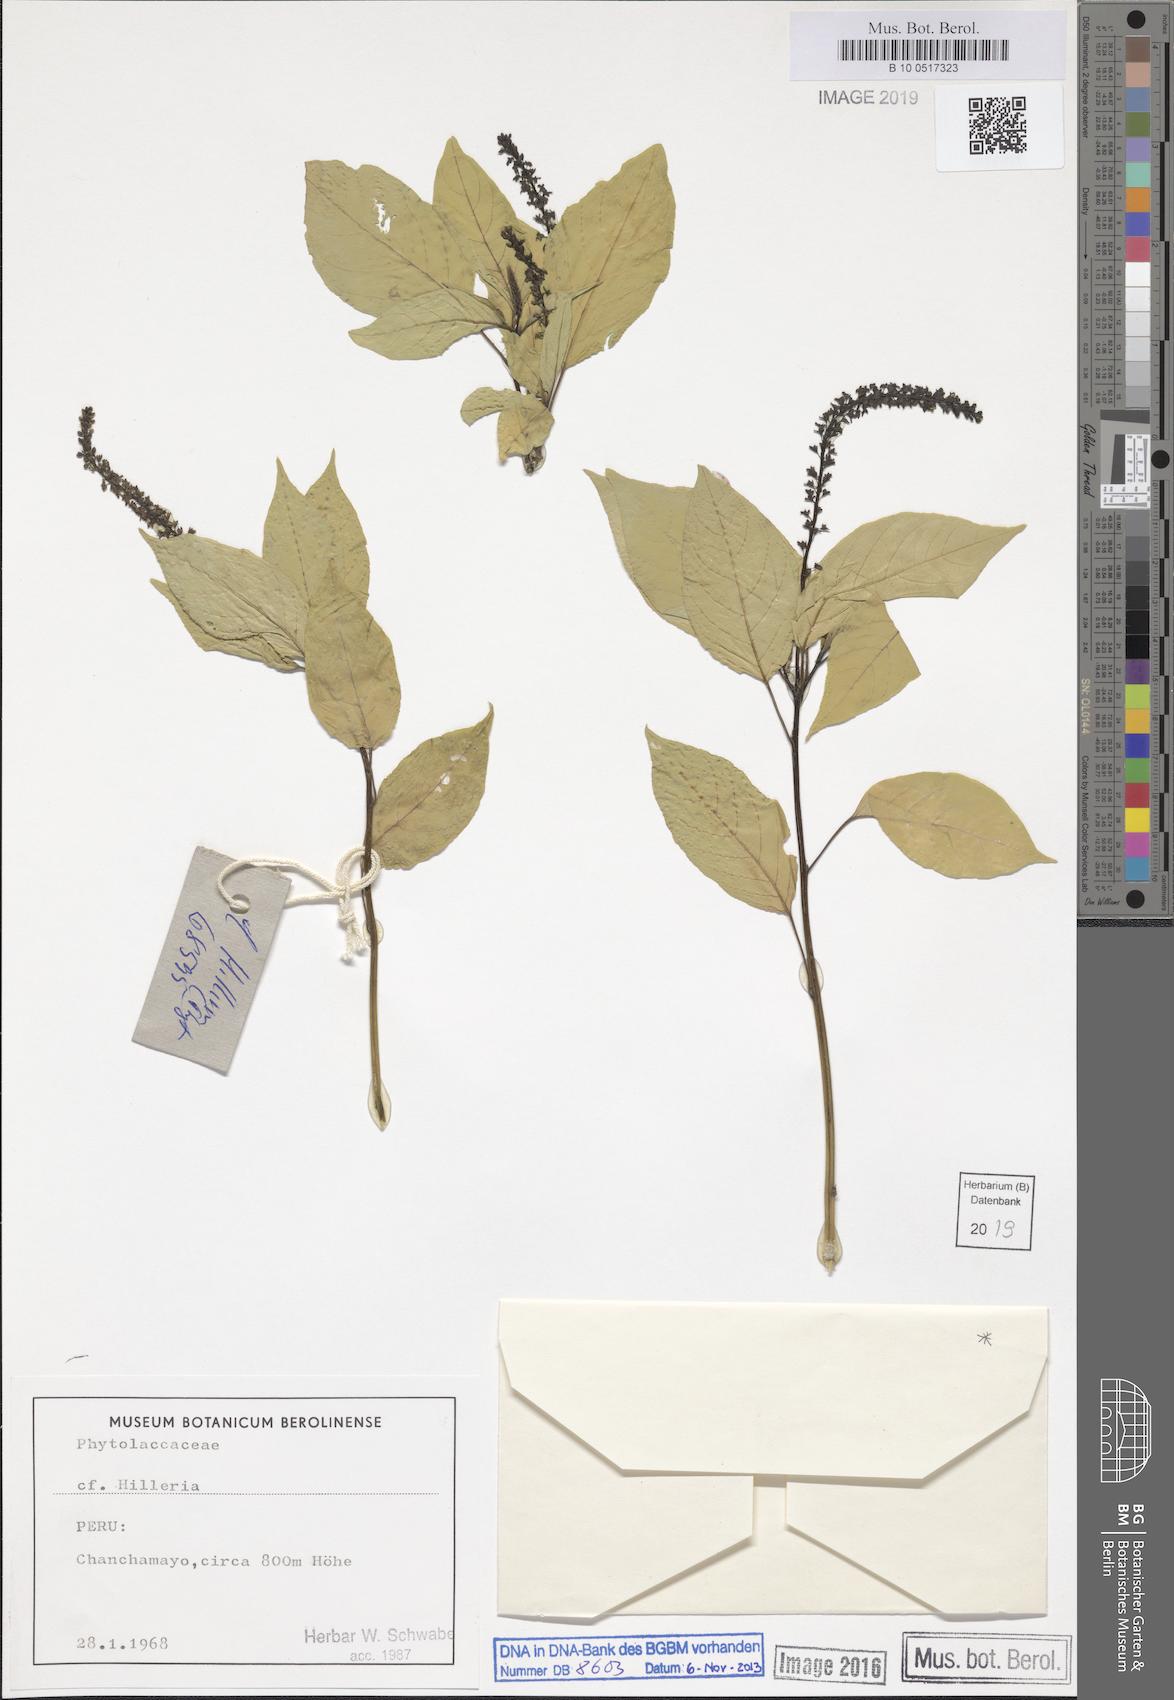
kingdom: Plantae
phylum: Tracheophyta
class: Magnoliopsida
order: Caryophyllales
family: Phytolaccaceae
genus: Hilleria
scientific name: Hilleria
